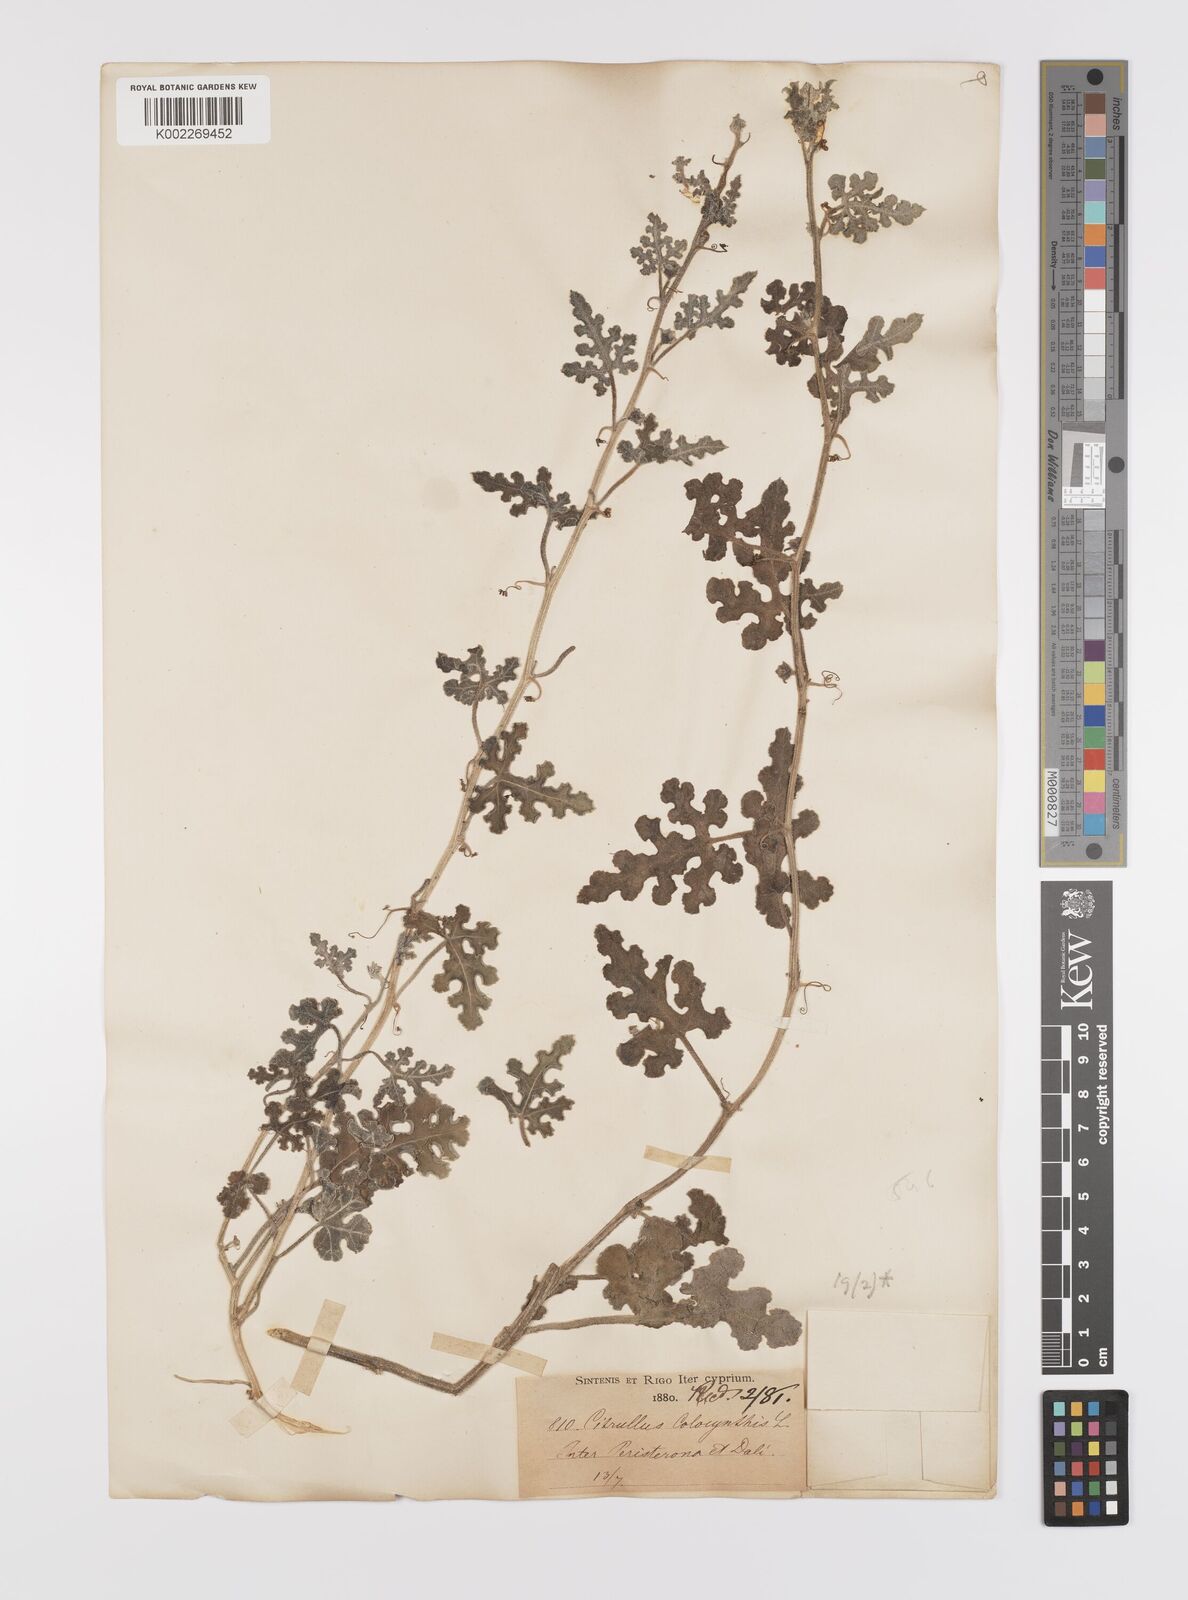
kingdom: Plantae
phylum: Tracheophyta
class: Magnoliopsida
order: Cucurbitales
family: Cucurbitaceae
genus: Citrullus
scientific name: Citrullus colocynthis
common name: Colocynth
